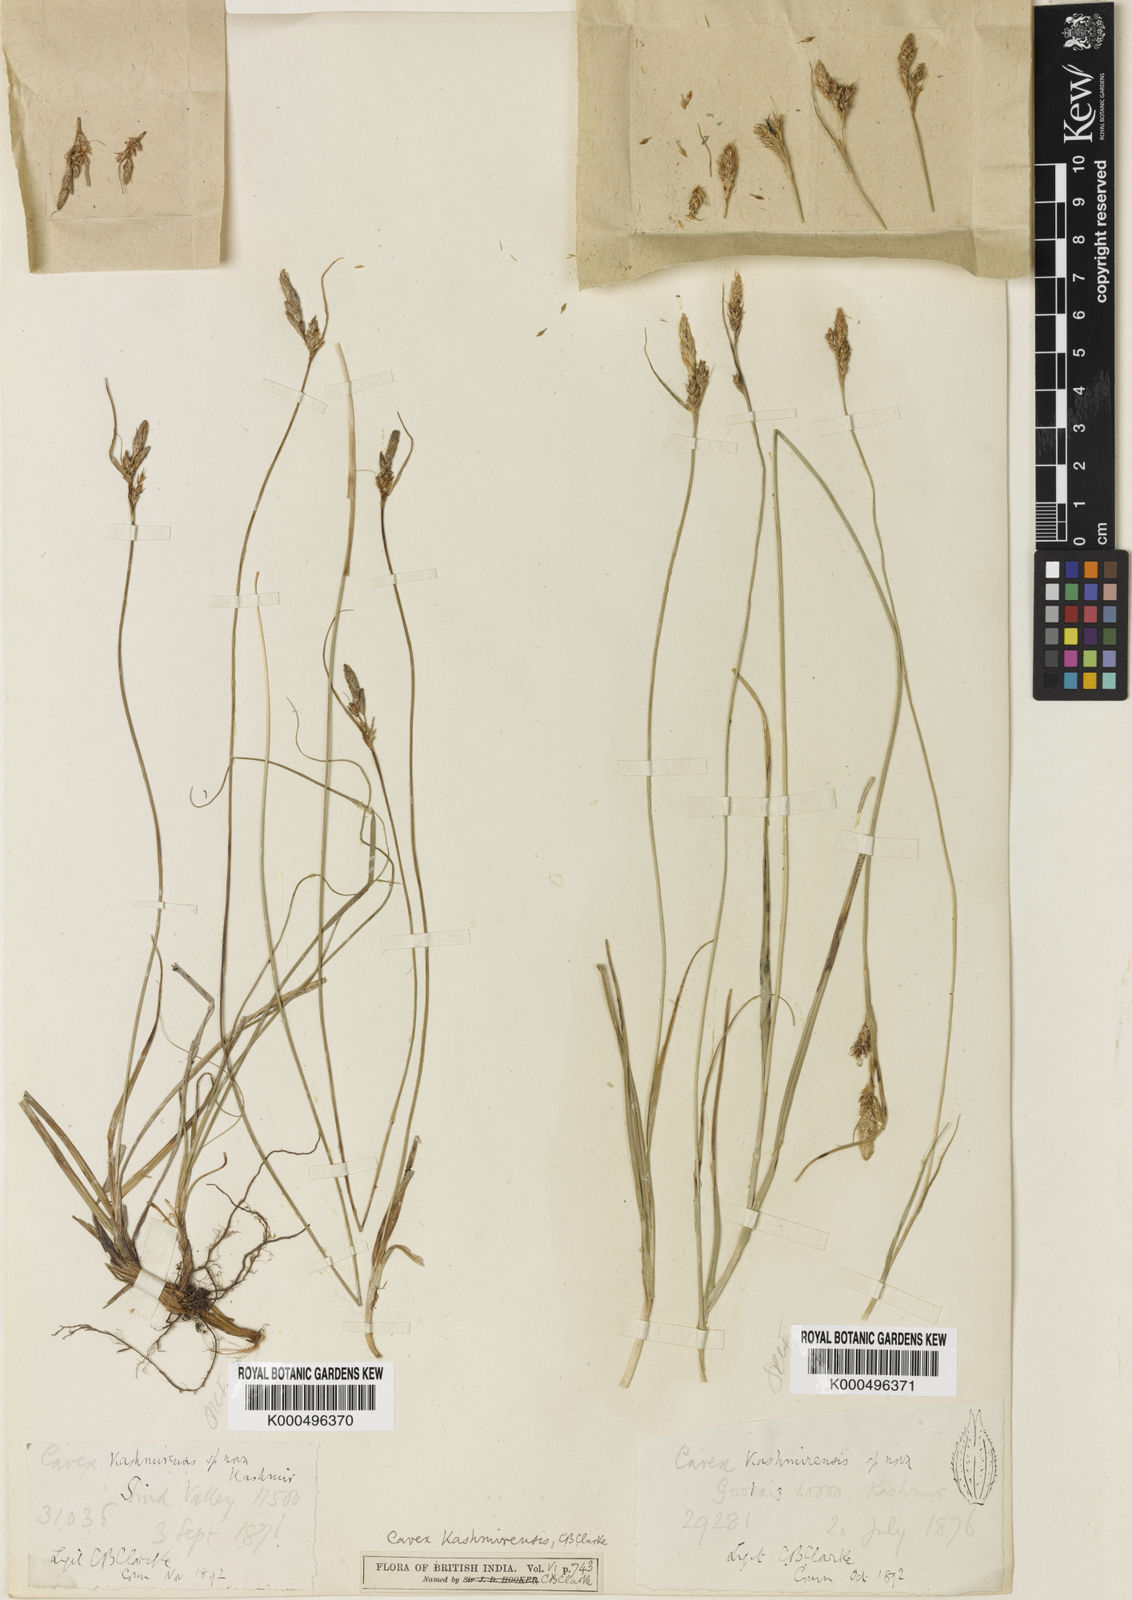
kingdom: Plantae
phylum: Tracheophyta
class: Liliopsida
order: Poales
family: Cyperaceae
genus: Carex
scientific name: Carex kashmirensis
